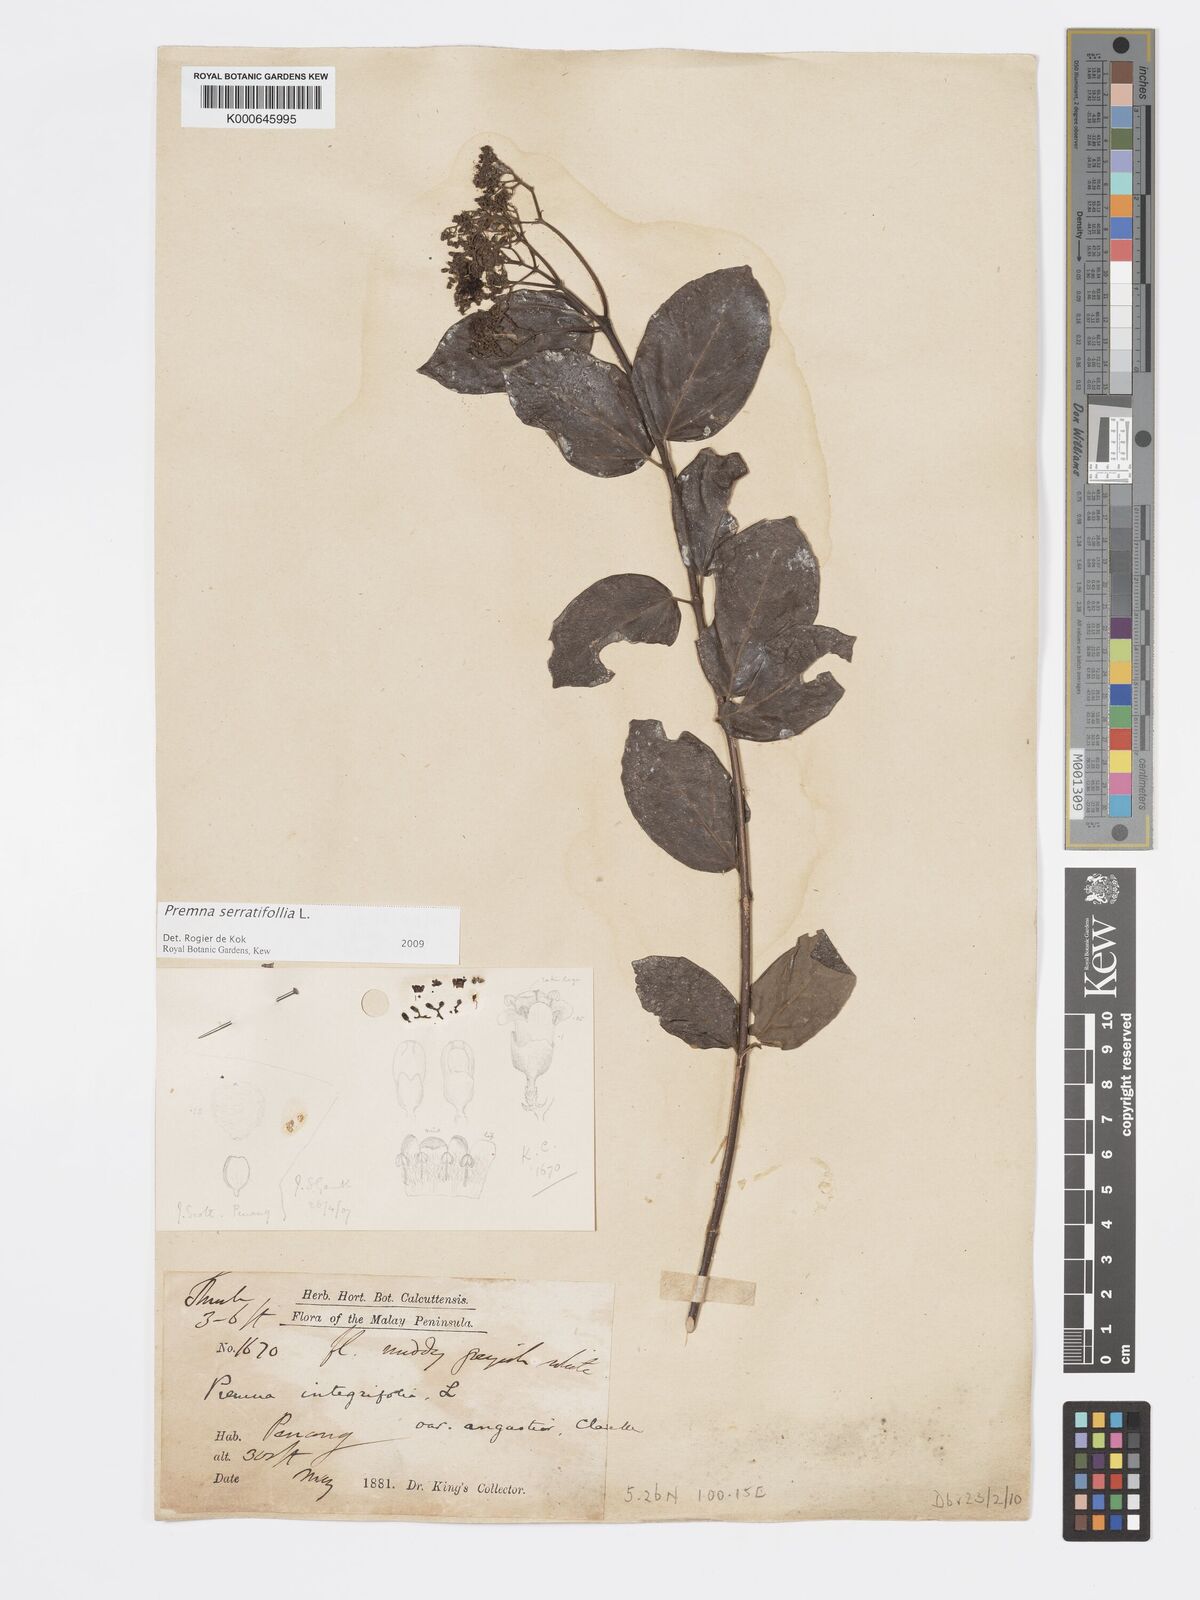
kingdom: Plantae
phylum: Tracheophyta
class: Magnoliopsida
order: Lamiales
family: Lamiaceae
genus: Premna
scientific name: Premna serratifolia
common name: Bastard guelder
